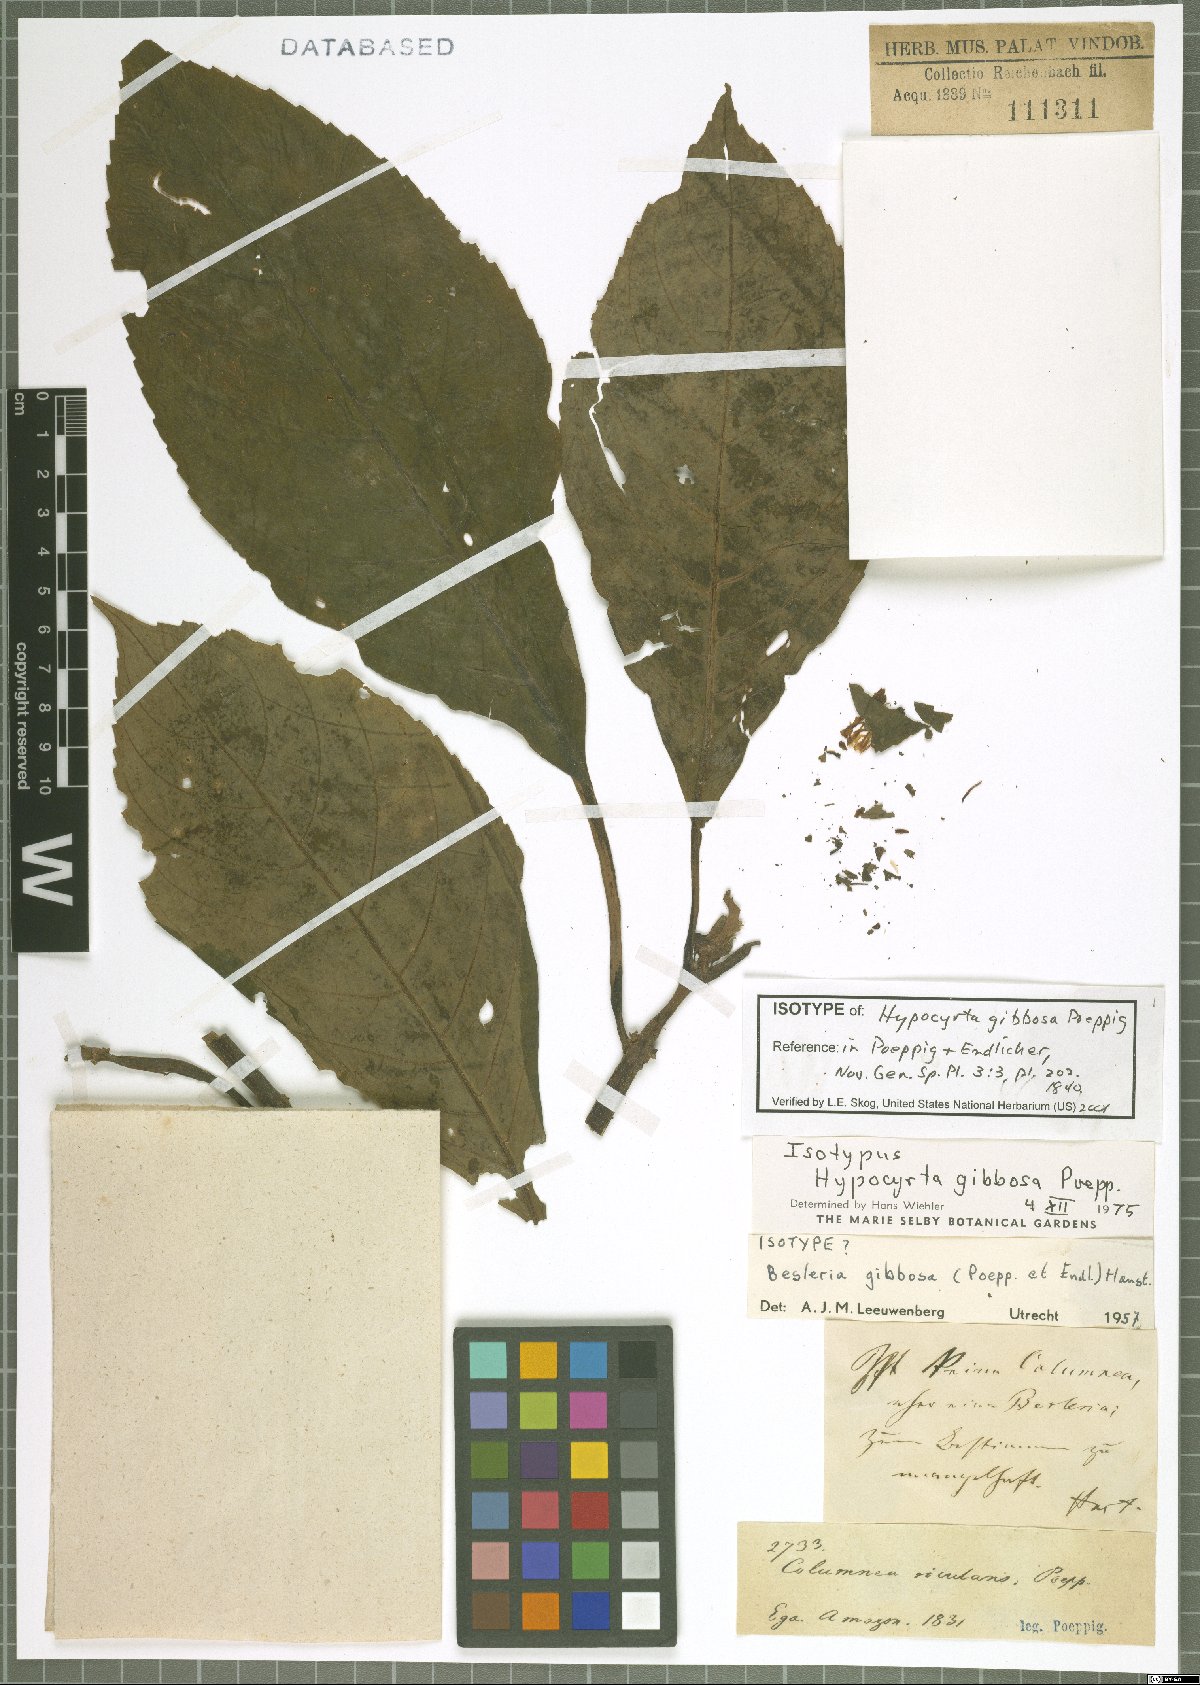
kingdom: Plantae
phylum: Tracheophyta
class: Magnoliopsida
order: Lamiales
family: Gesneriaceae
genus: Besleria
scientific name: Besleria gibbosa
